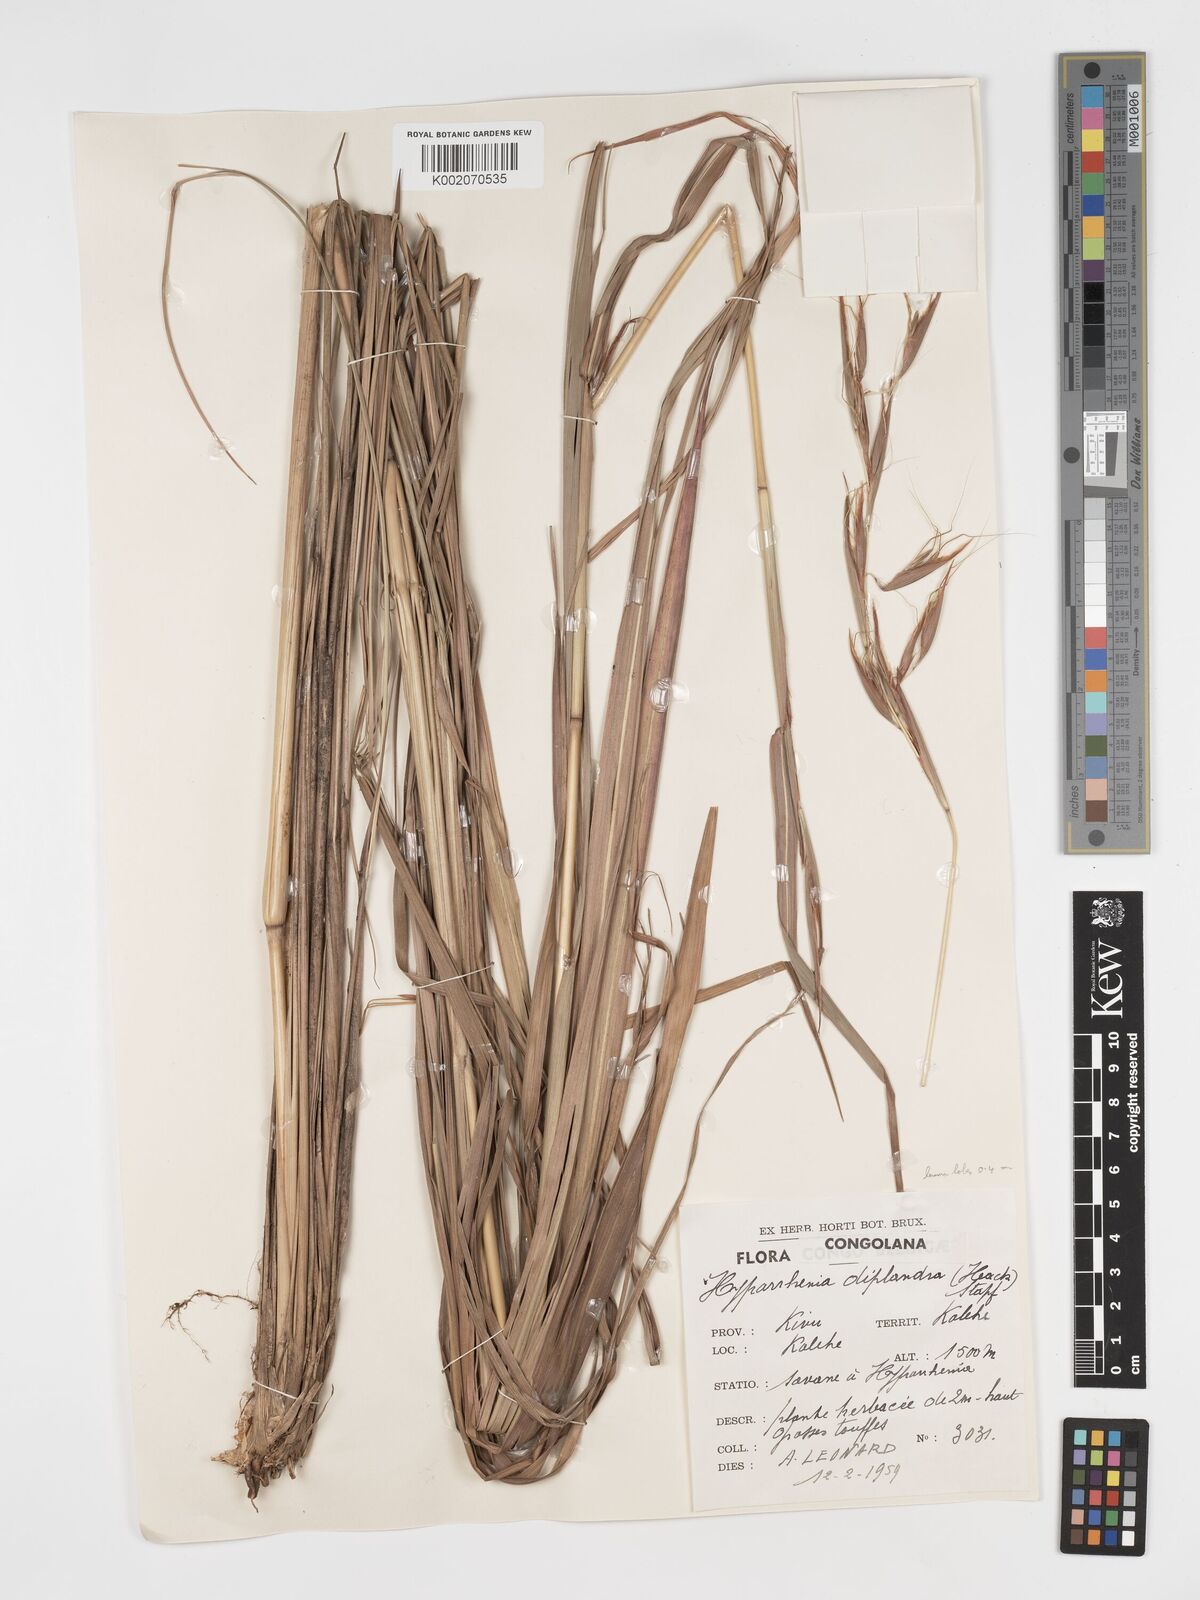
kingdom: Plantae
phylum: Tracheophyta
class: Liliopsida
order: Poales
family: Poaceae
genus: Hyparrhenia
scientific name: Hyparrhenia diplandra
